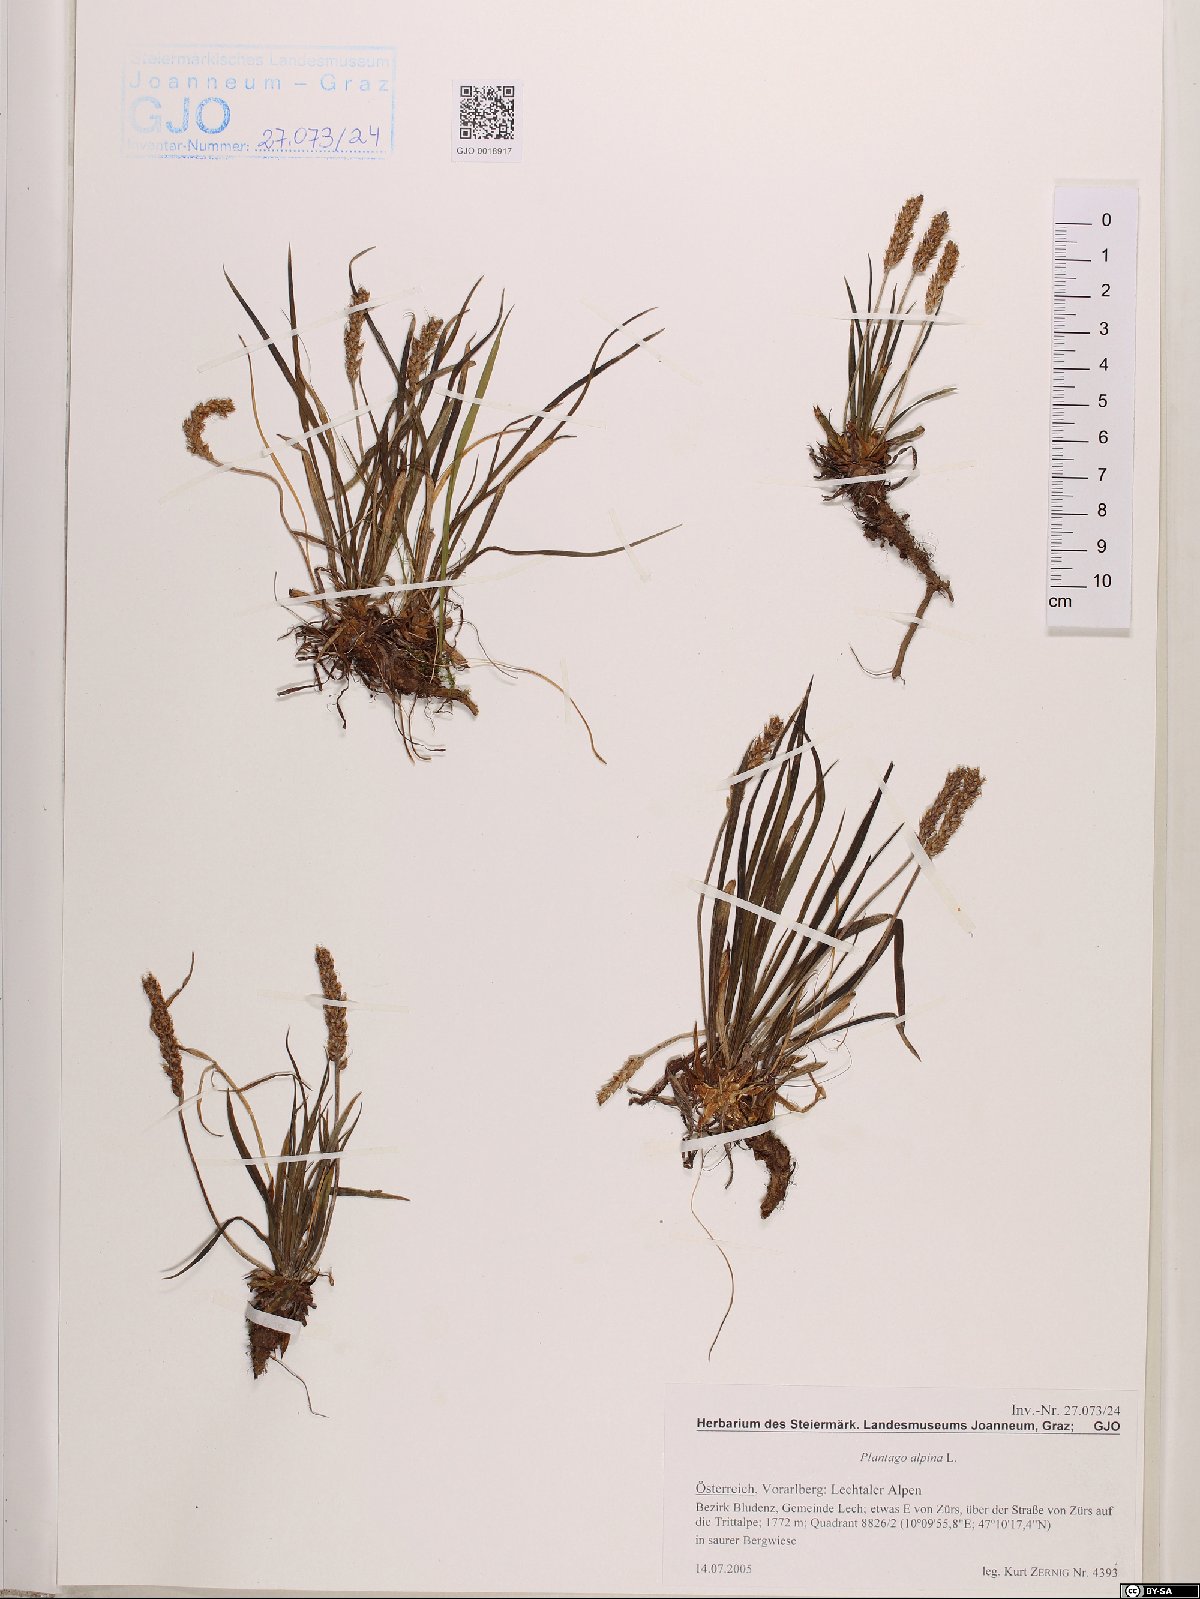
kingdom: Plantae
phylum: Tracheophyta
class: Magnoliopsida
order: Lamiales
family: Plantaginaceae
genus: Plantago
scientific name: Plantago alpina
